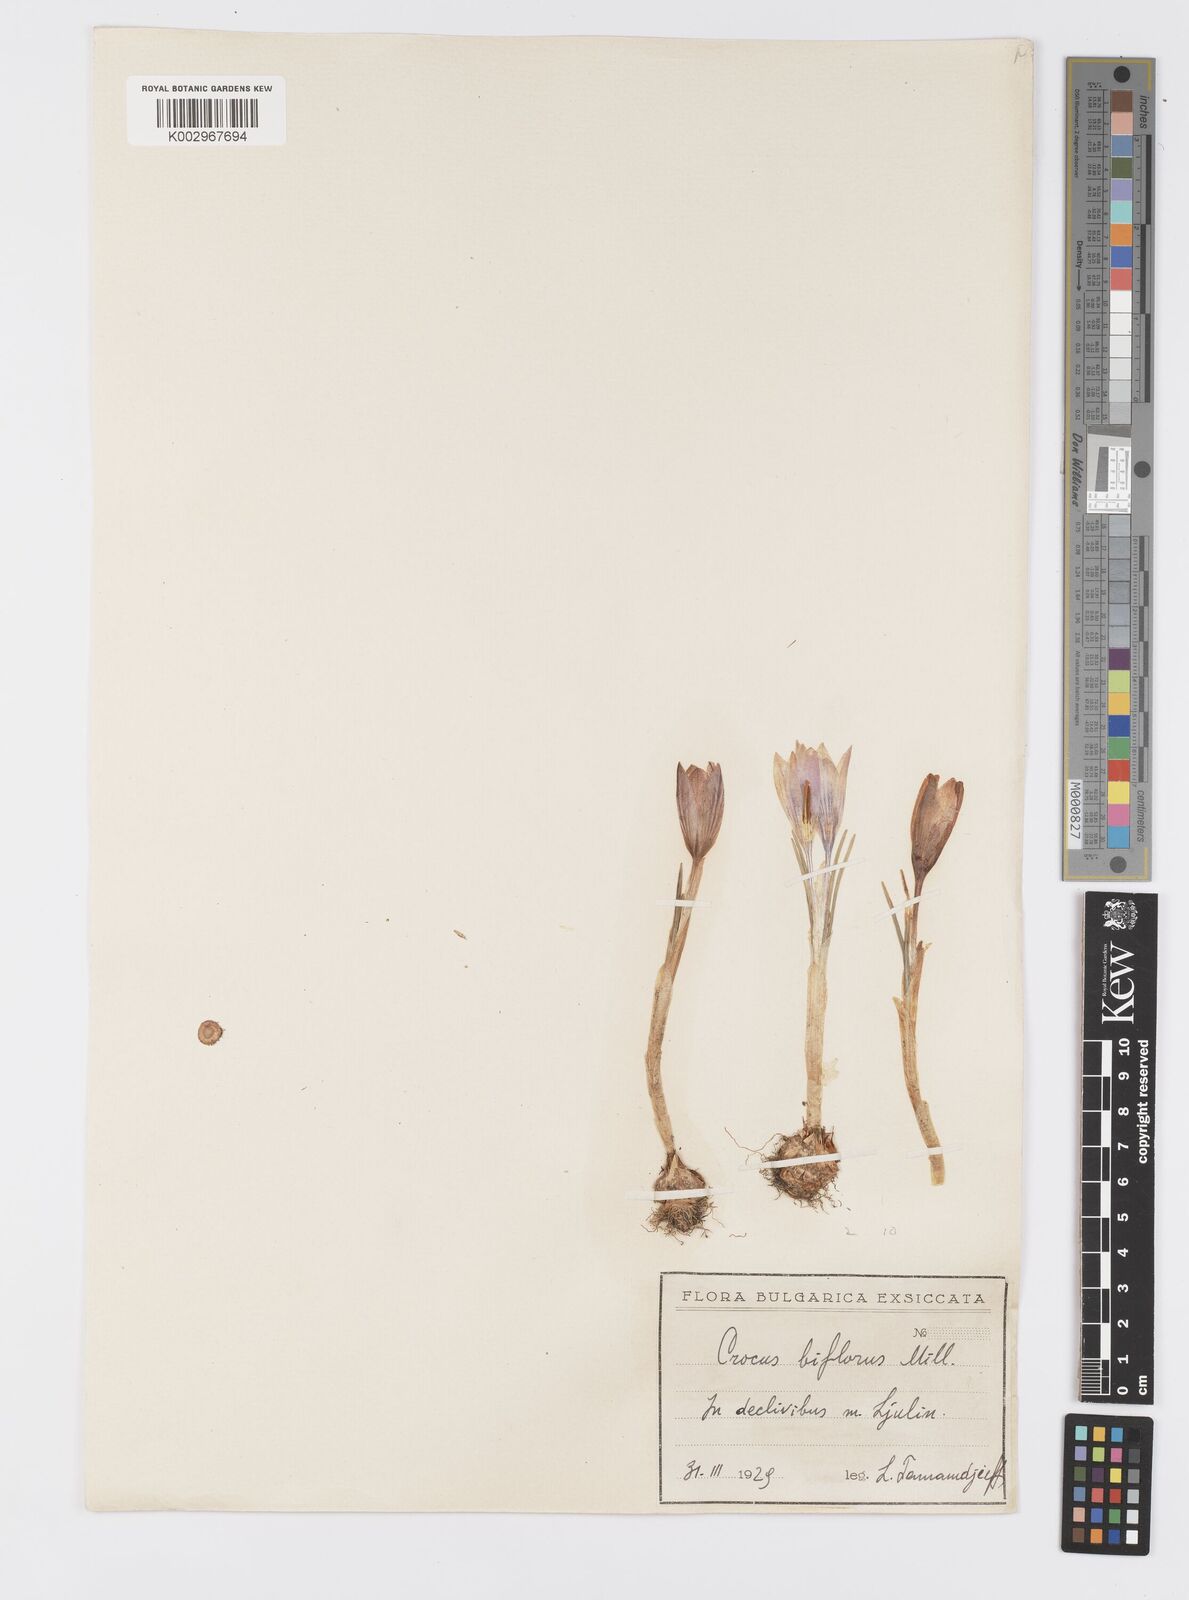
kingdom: Plantae
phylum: Tracheophyta
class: Liliopsida
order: Asparagales
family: Iridaceae
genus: Crocus
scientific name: Crocus biflorus
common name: Silvery crocus
